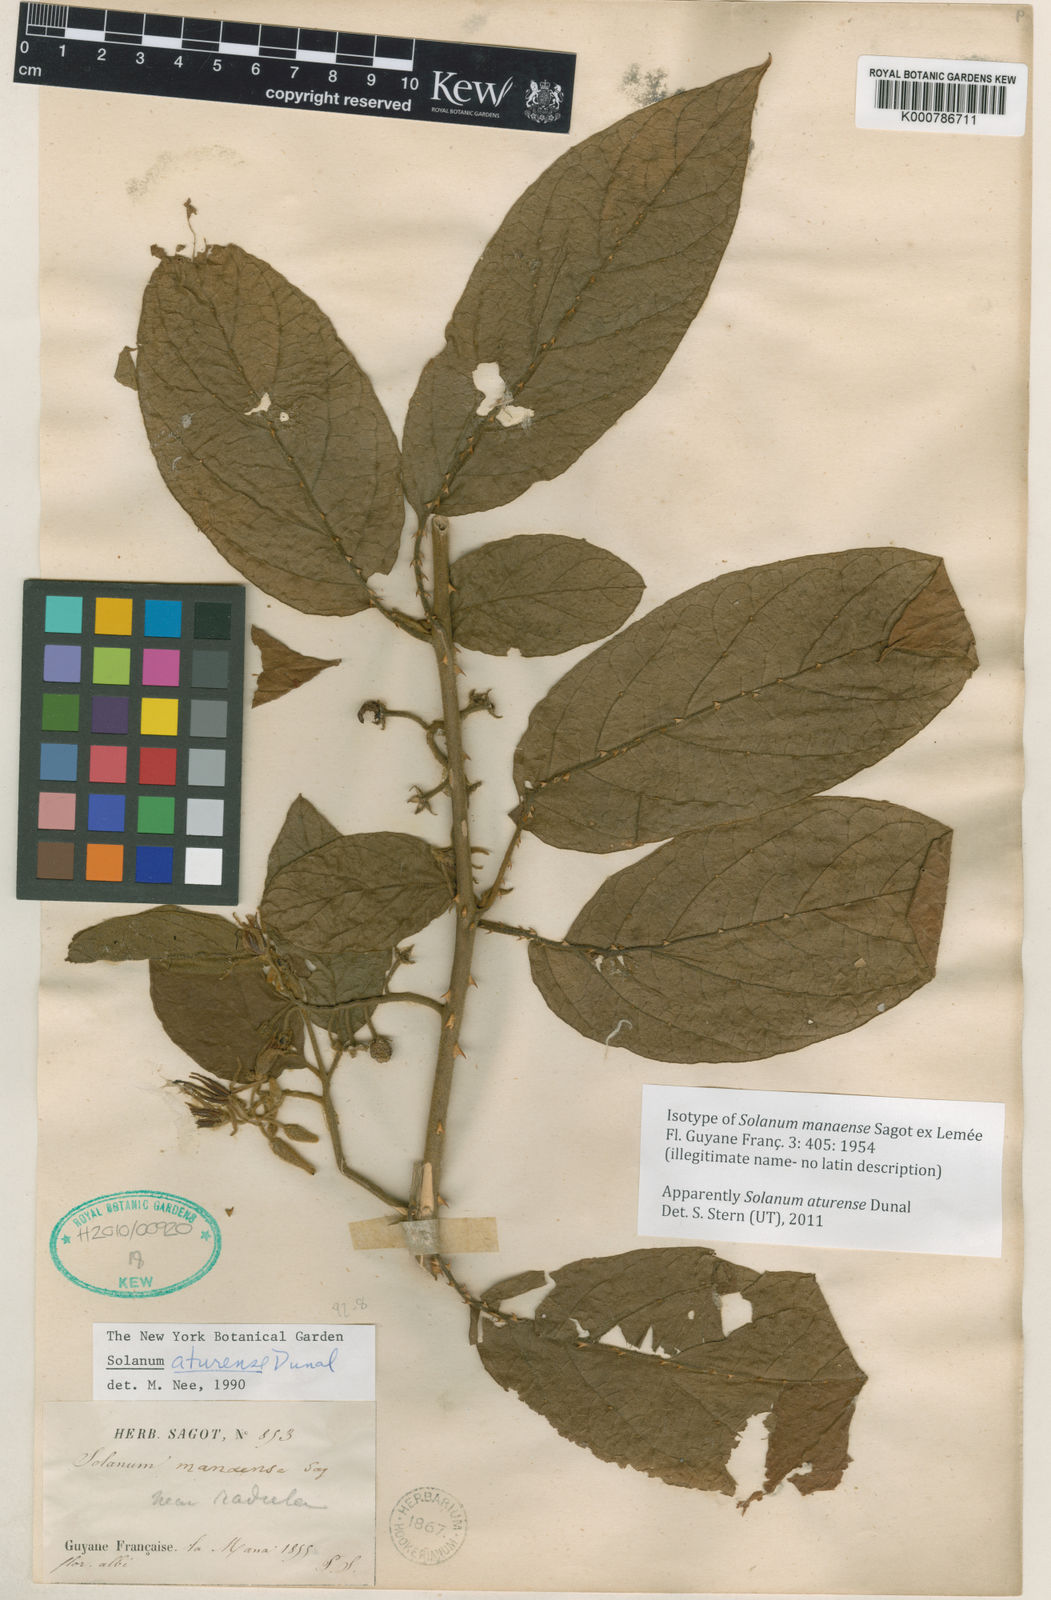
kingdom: Plantae
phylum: Tracheophyta
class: Magnoliopsida
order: Solanales
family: Solanaceae
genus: Solanum
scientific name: Solanum aturense
